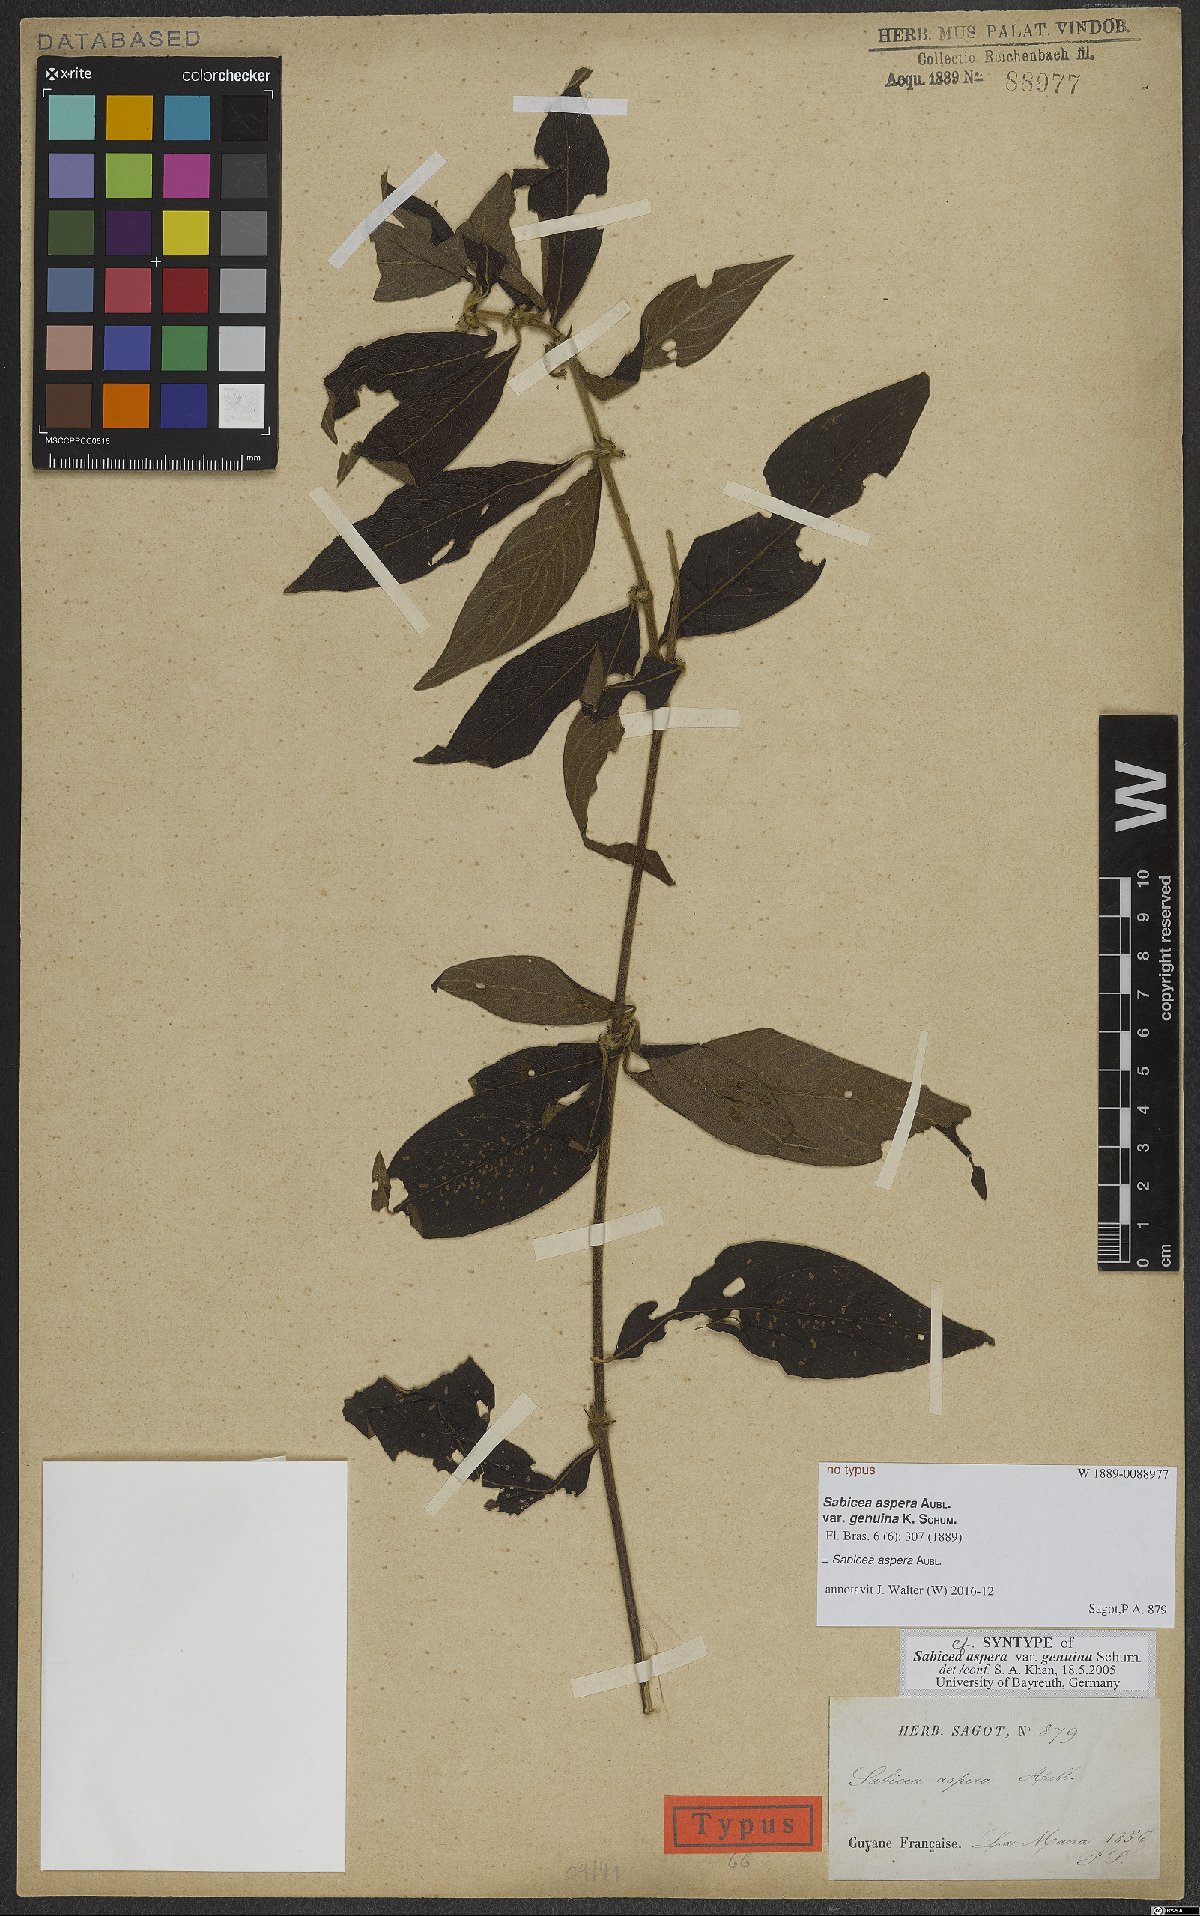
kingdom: Plantae
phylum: Tracheophyta
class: Magnoliopsida
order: Gentianales
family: Rubiaceae
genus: Sabicea
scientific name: Sabicea aspera
